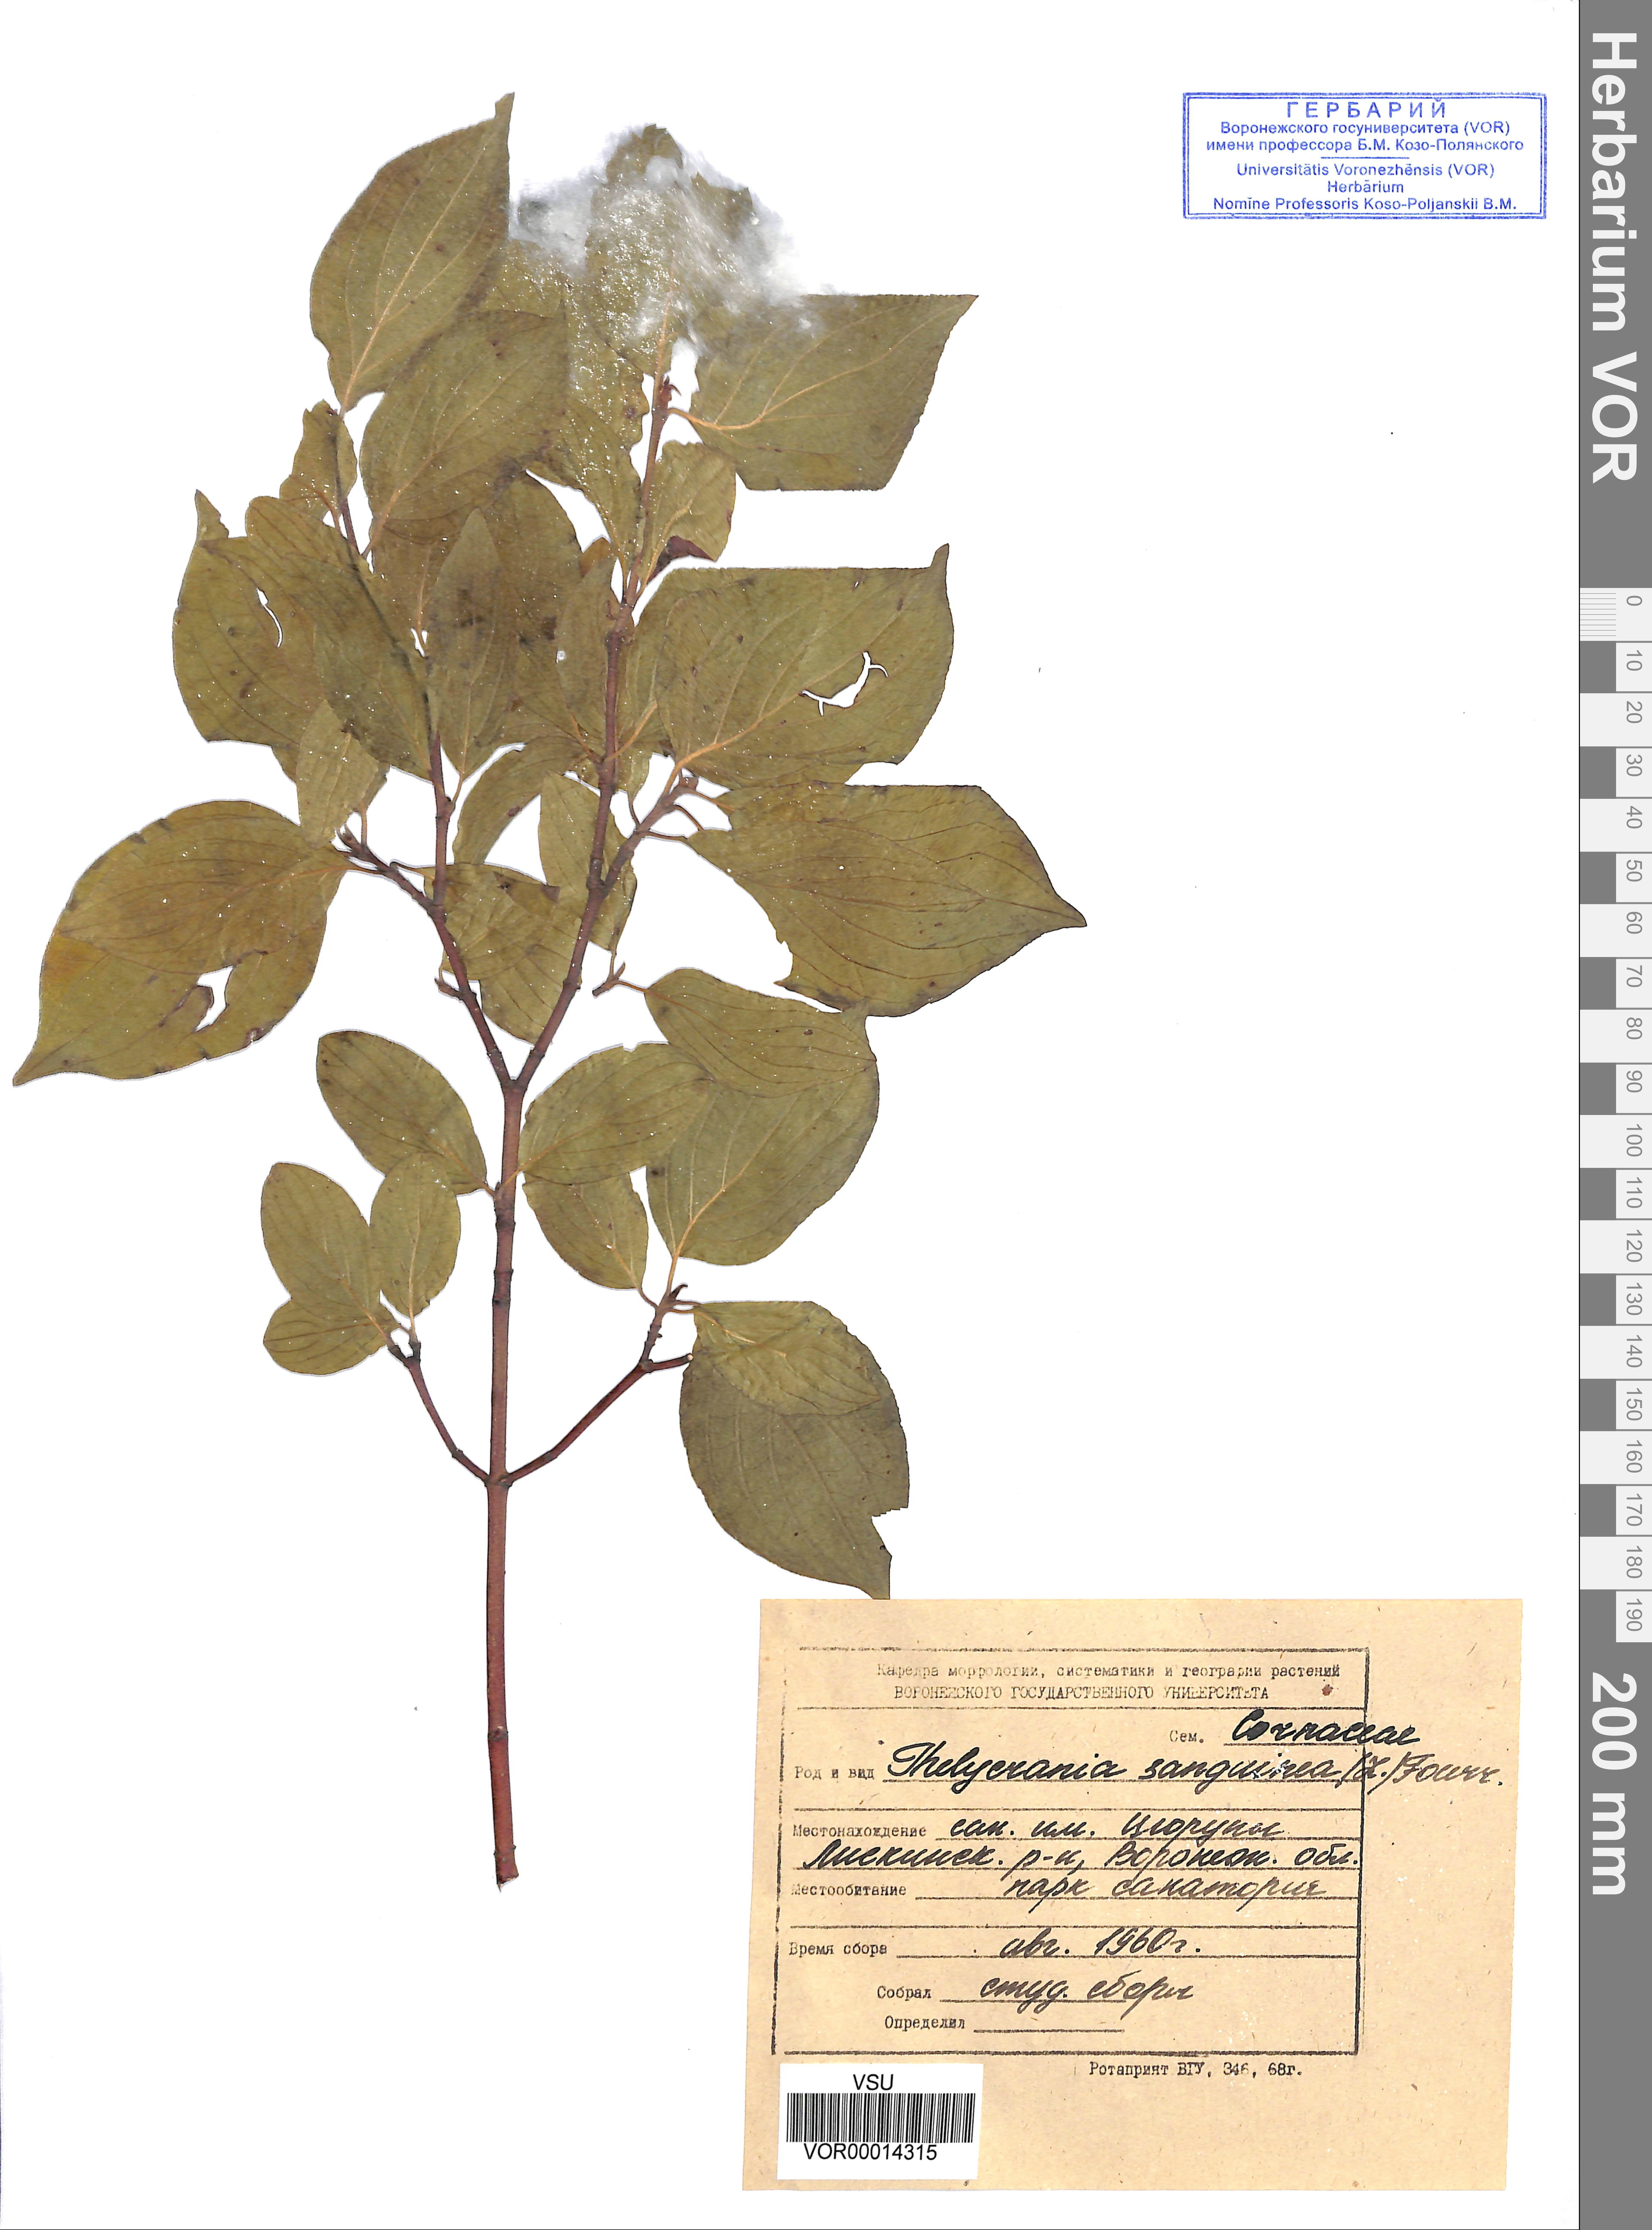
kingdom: Plantae
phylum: Tracheophyta
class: Magnoliopsida
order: Cornales
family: Cornaceae
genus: Cornus
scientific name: Cornus sanguinea
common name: Dogwood
